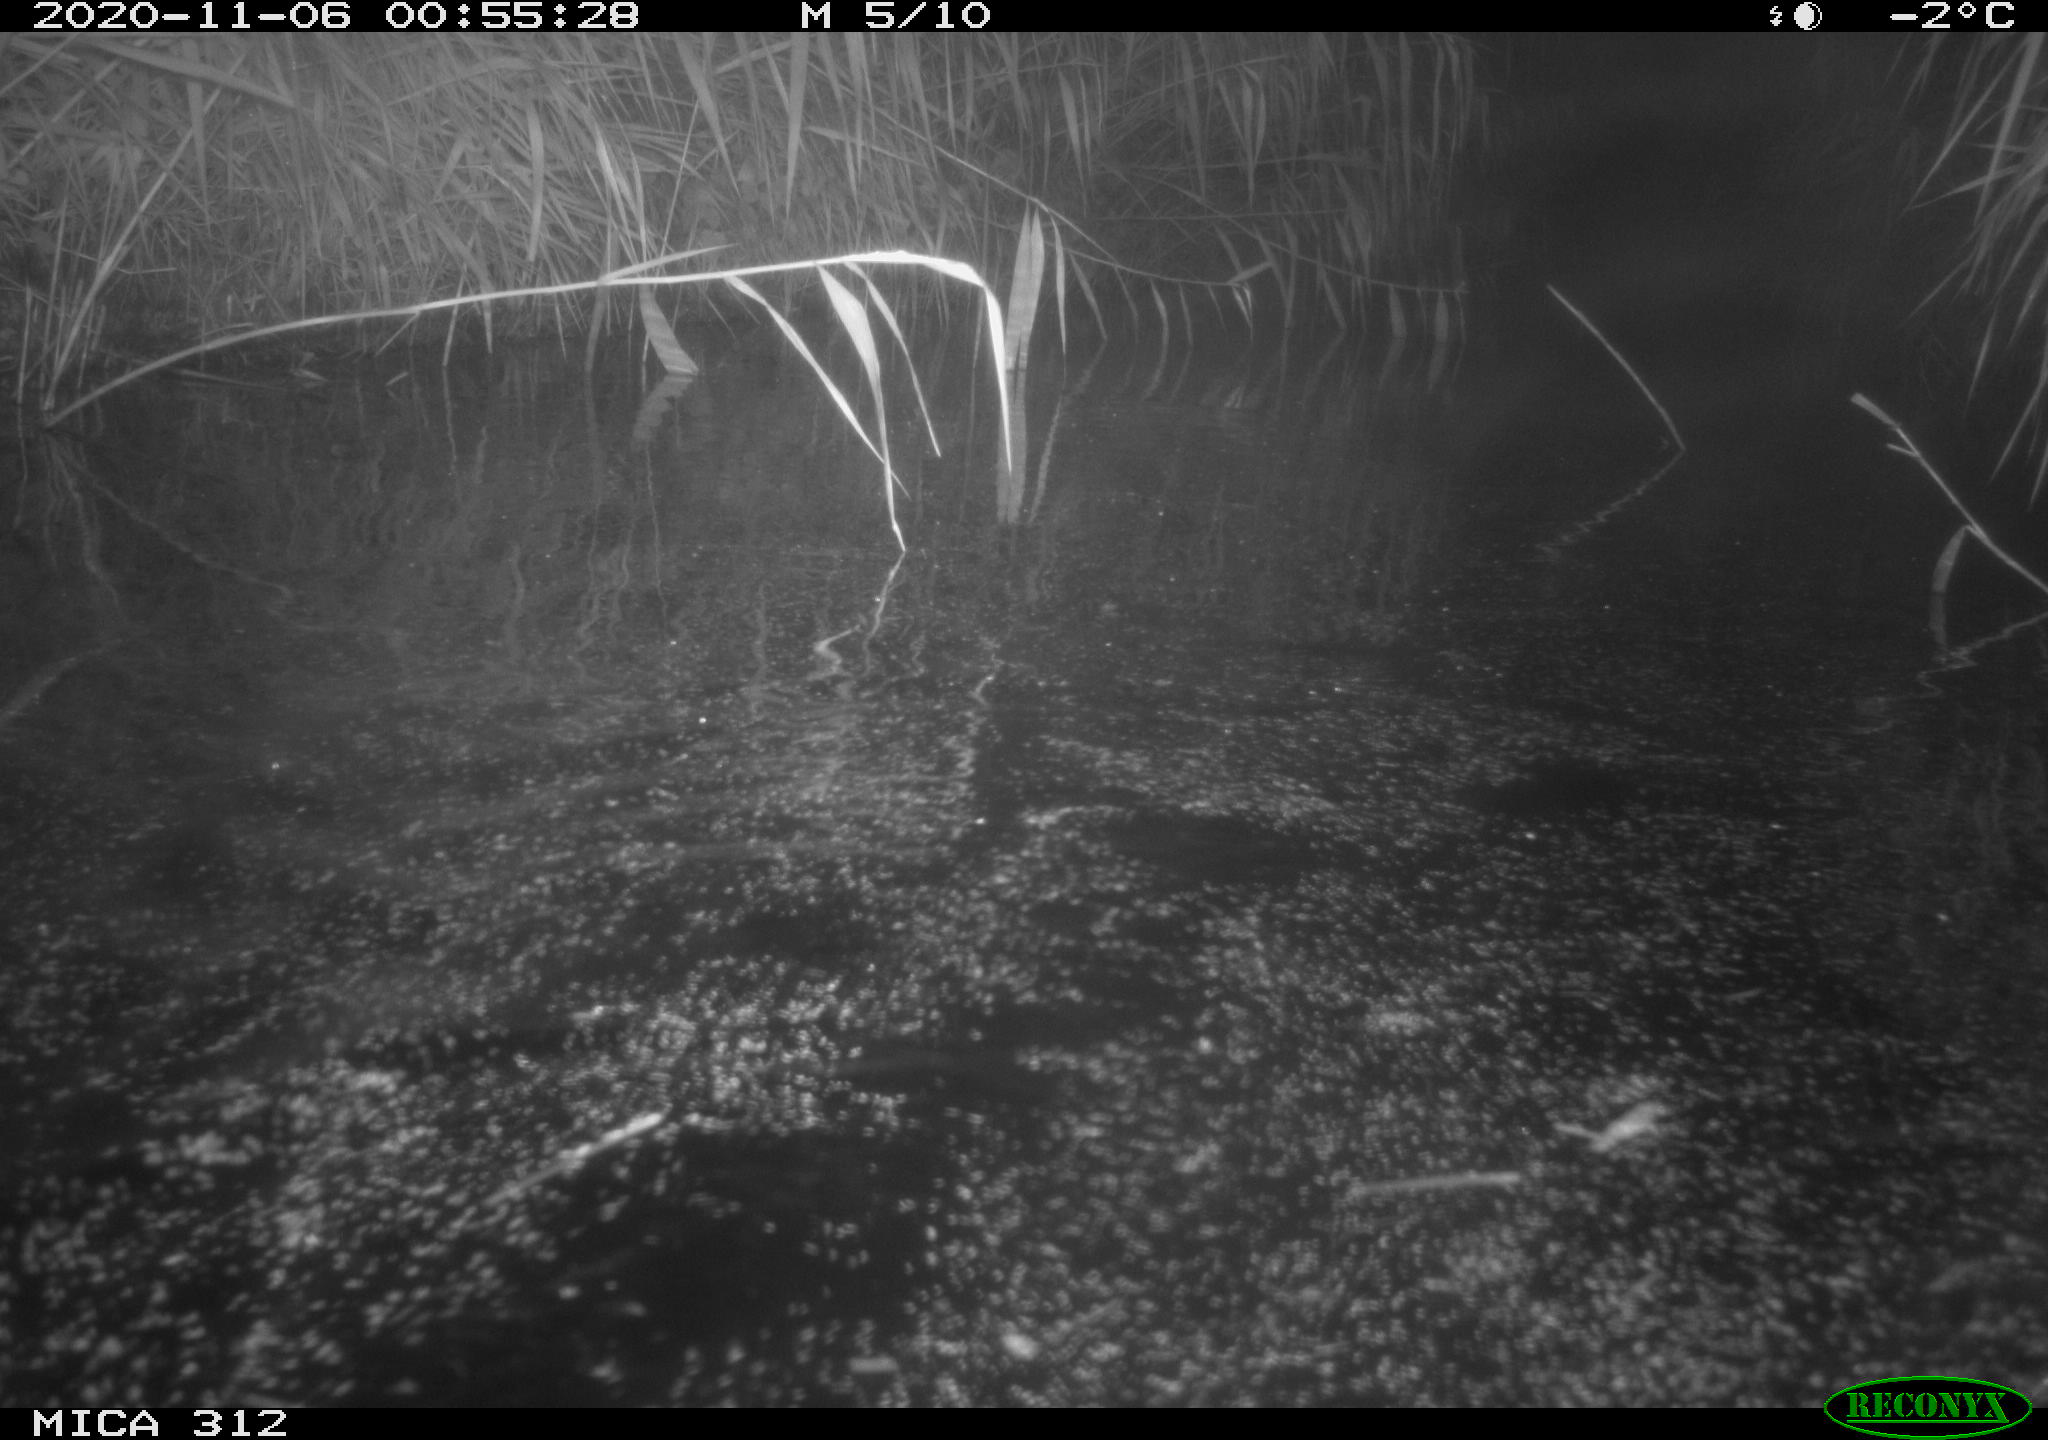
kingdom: Animalia
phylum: Chordata
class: Mammalia
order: Rodentia
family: Cricetidae
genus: Ondatra
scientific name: Ondatra zibethicus
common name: Muskrat
